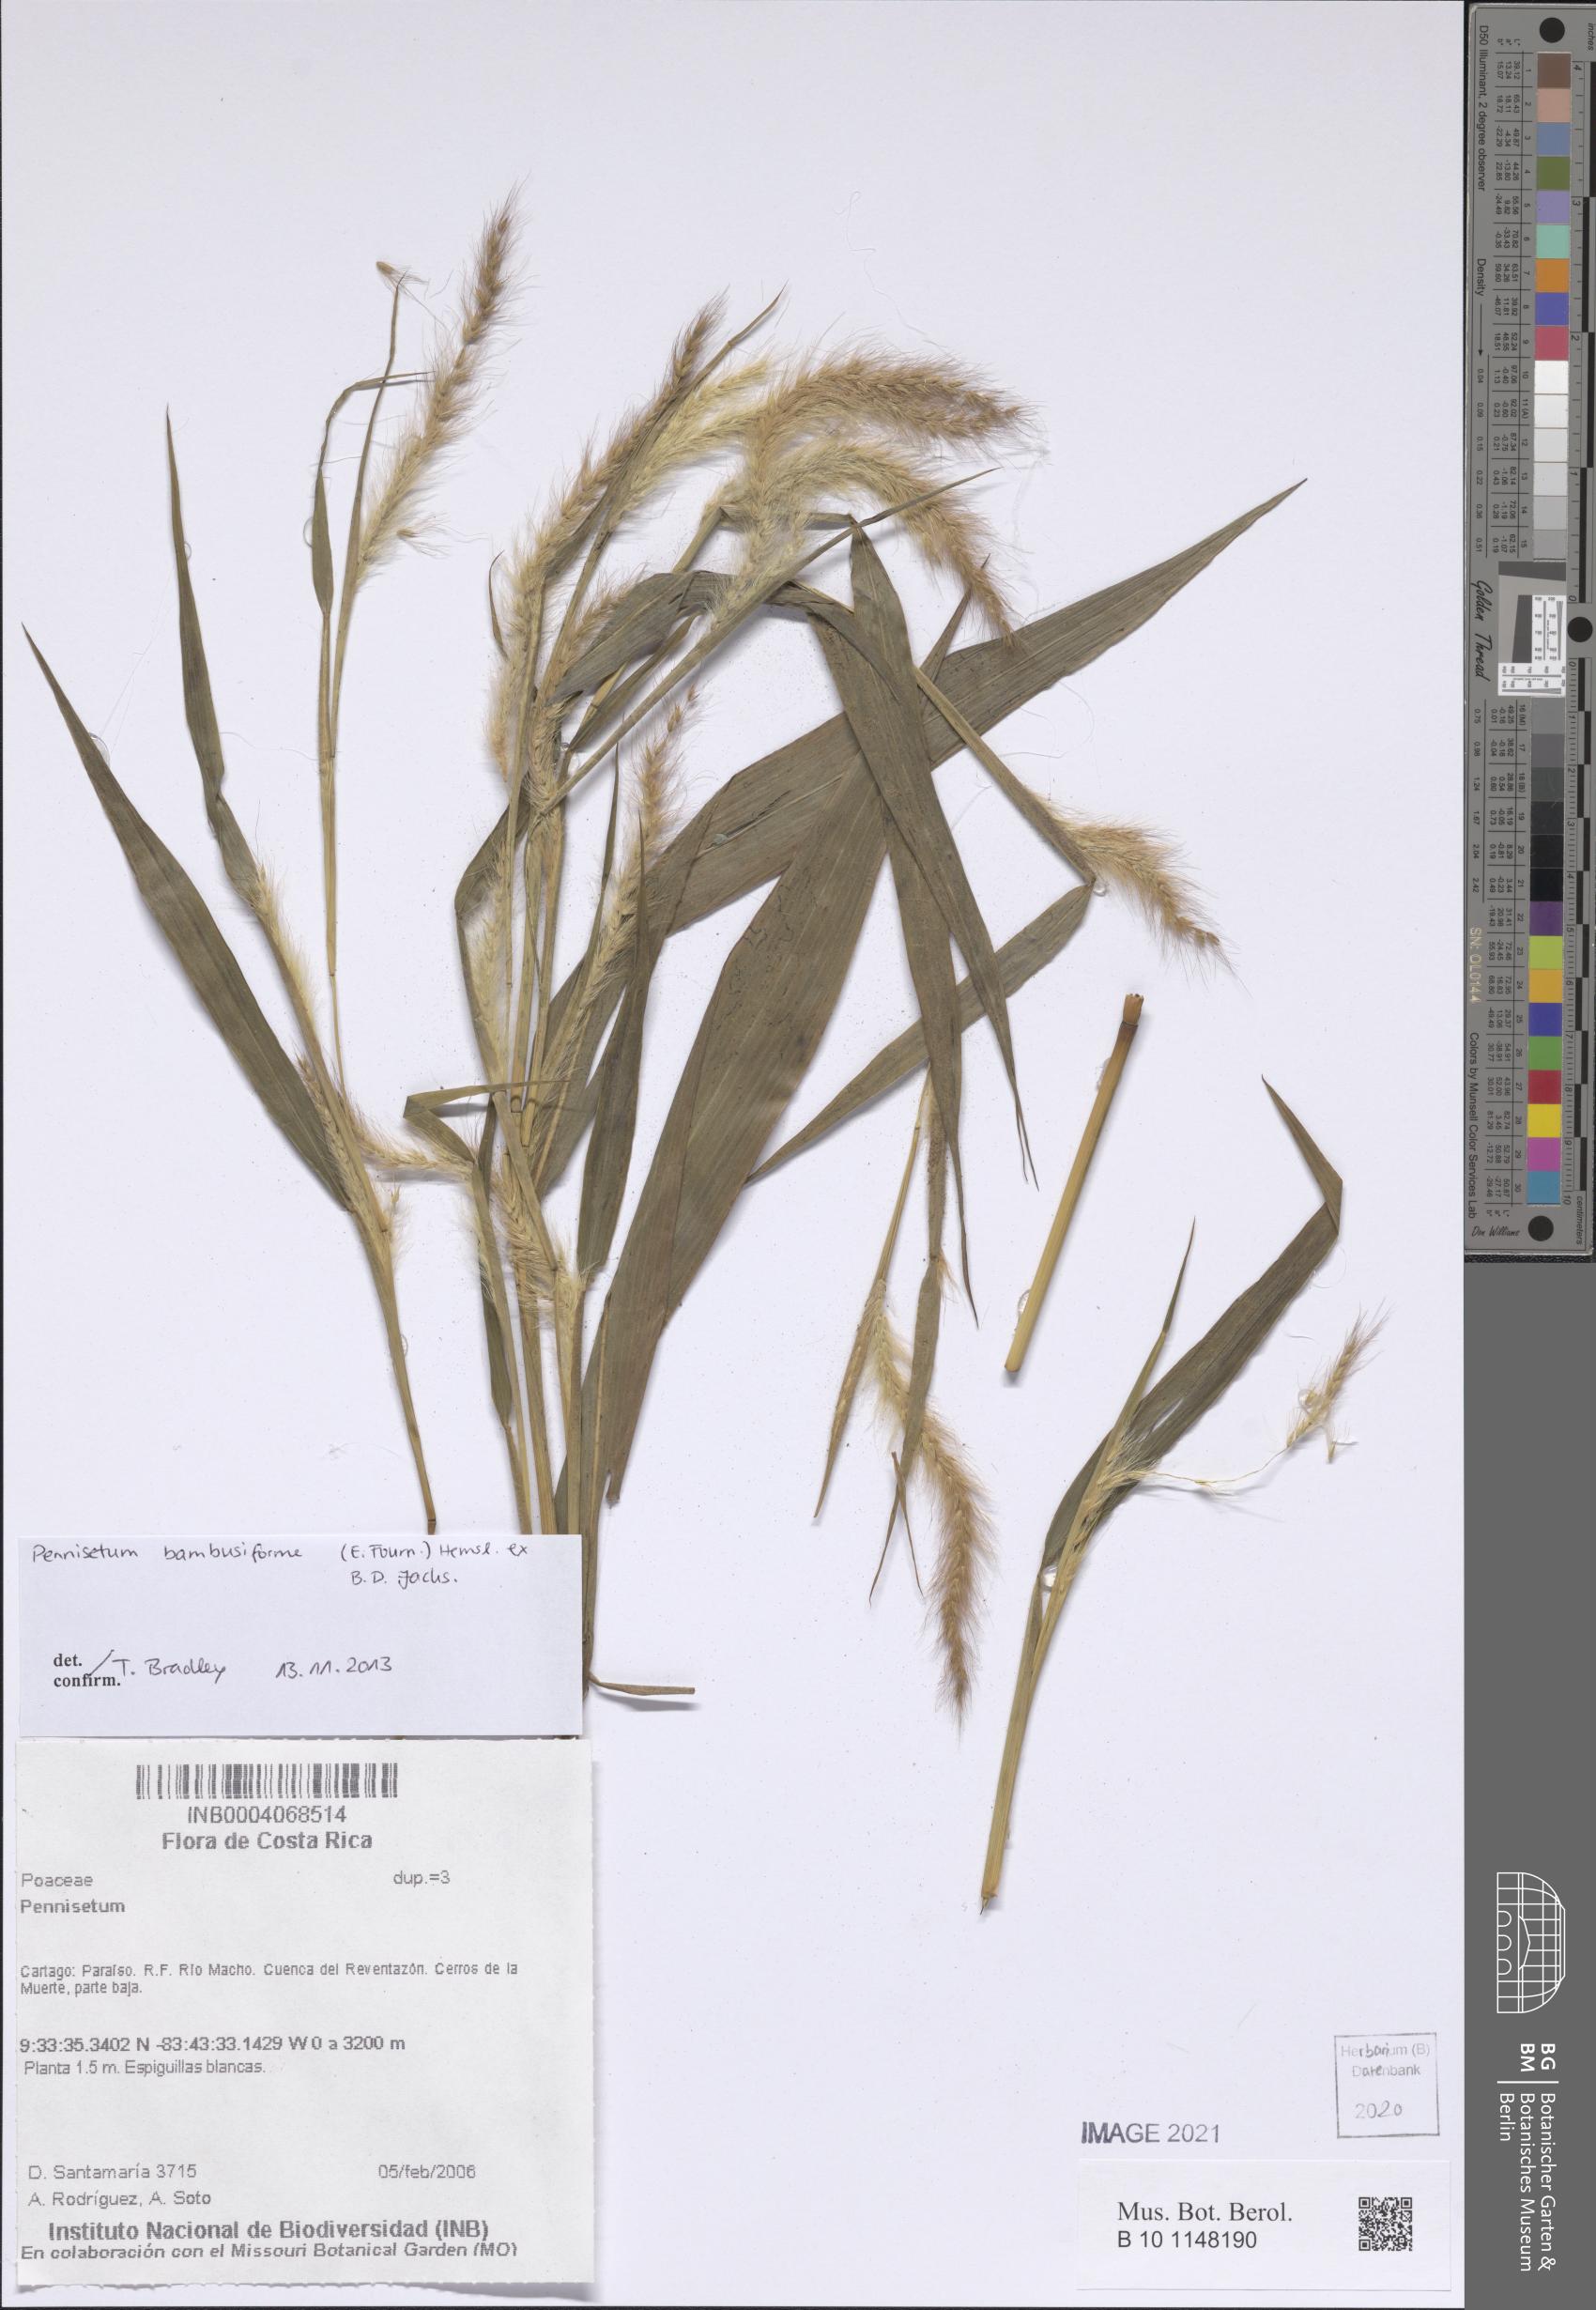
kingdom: Plantae
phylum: Tracheophyta
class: Liliopsida
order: Poales
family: Poaceae
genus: Cenchrus
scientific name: Cenchrus preslii
